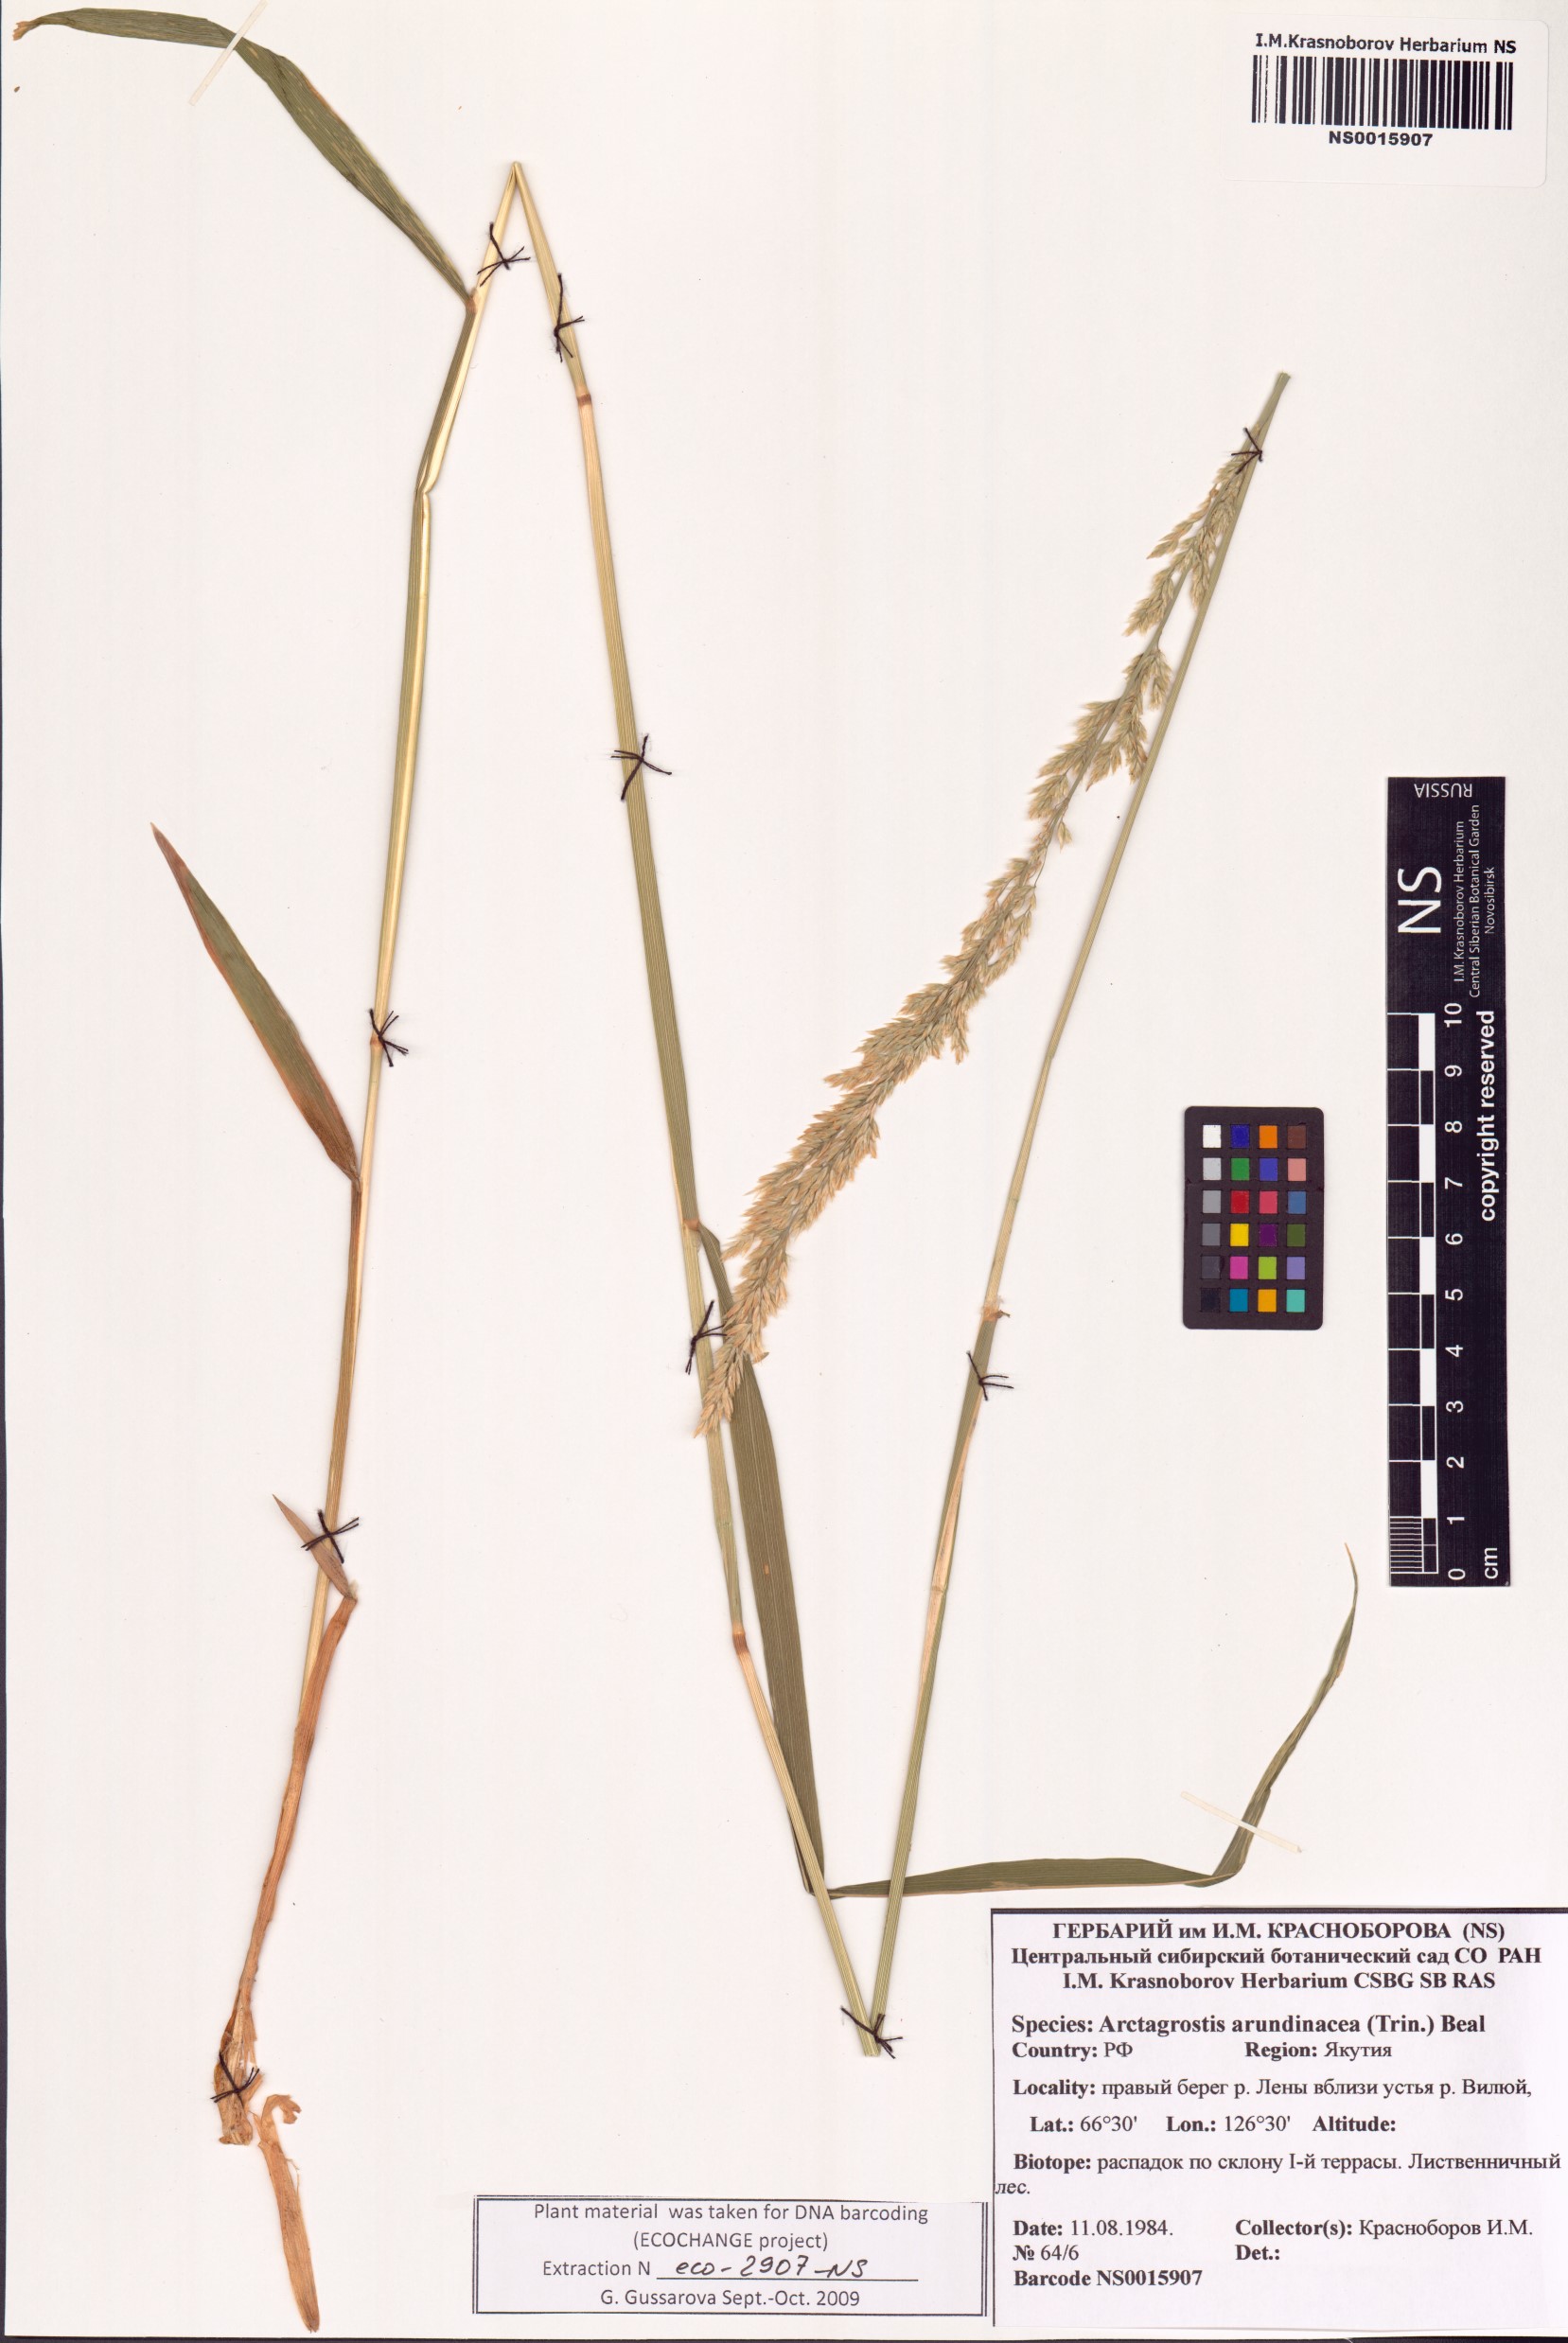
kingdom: Plantae
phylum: Tracheophyta
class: Liliopsida
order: Poales
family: Poaceae
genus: Arctagrostis
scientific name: Arctagrostis arundinacea
